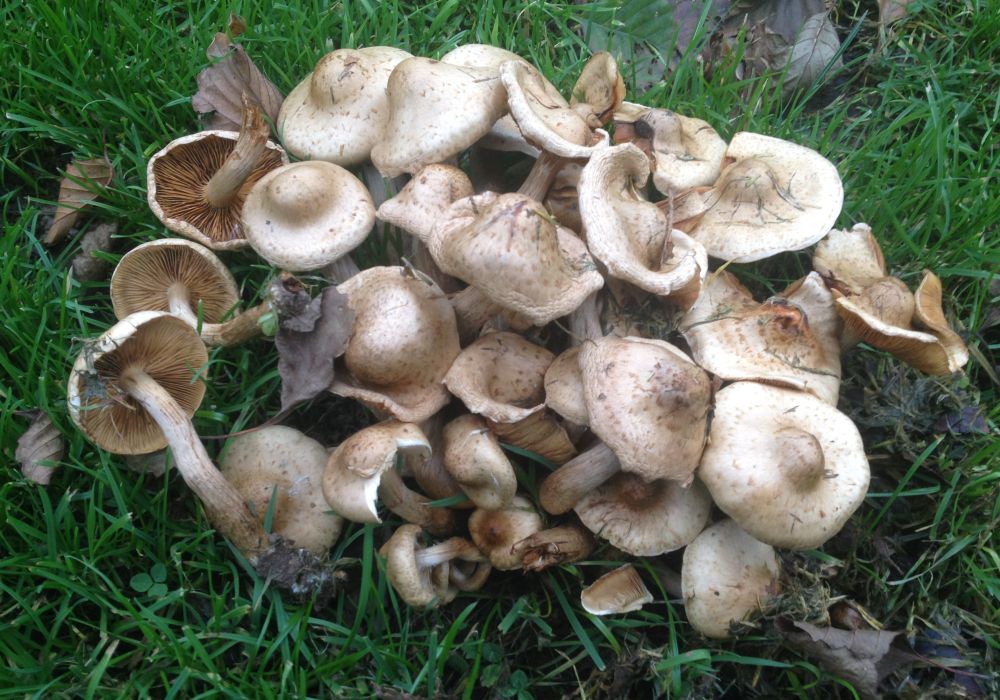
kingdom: Fungi
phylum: Basidiomycota
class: Agaricomycetes
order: Agaricales
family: Strophariaceae
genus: Pholiota
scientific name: Pholiota gummosa
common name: grøngul skælhat
